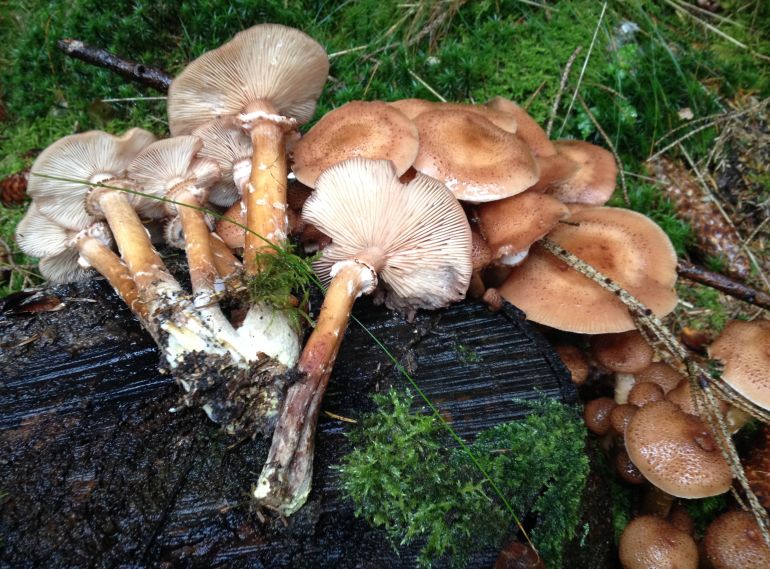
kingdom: Fungi
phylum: Basidiomycota
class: Agaricomycetes
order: Agaricales
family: Physalacriaceae
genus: Armillaria
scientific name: Armillaria ostoyae
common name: mørk honningsvamp
